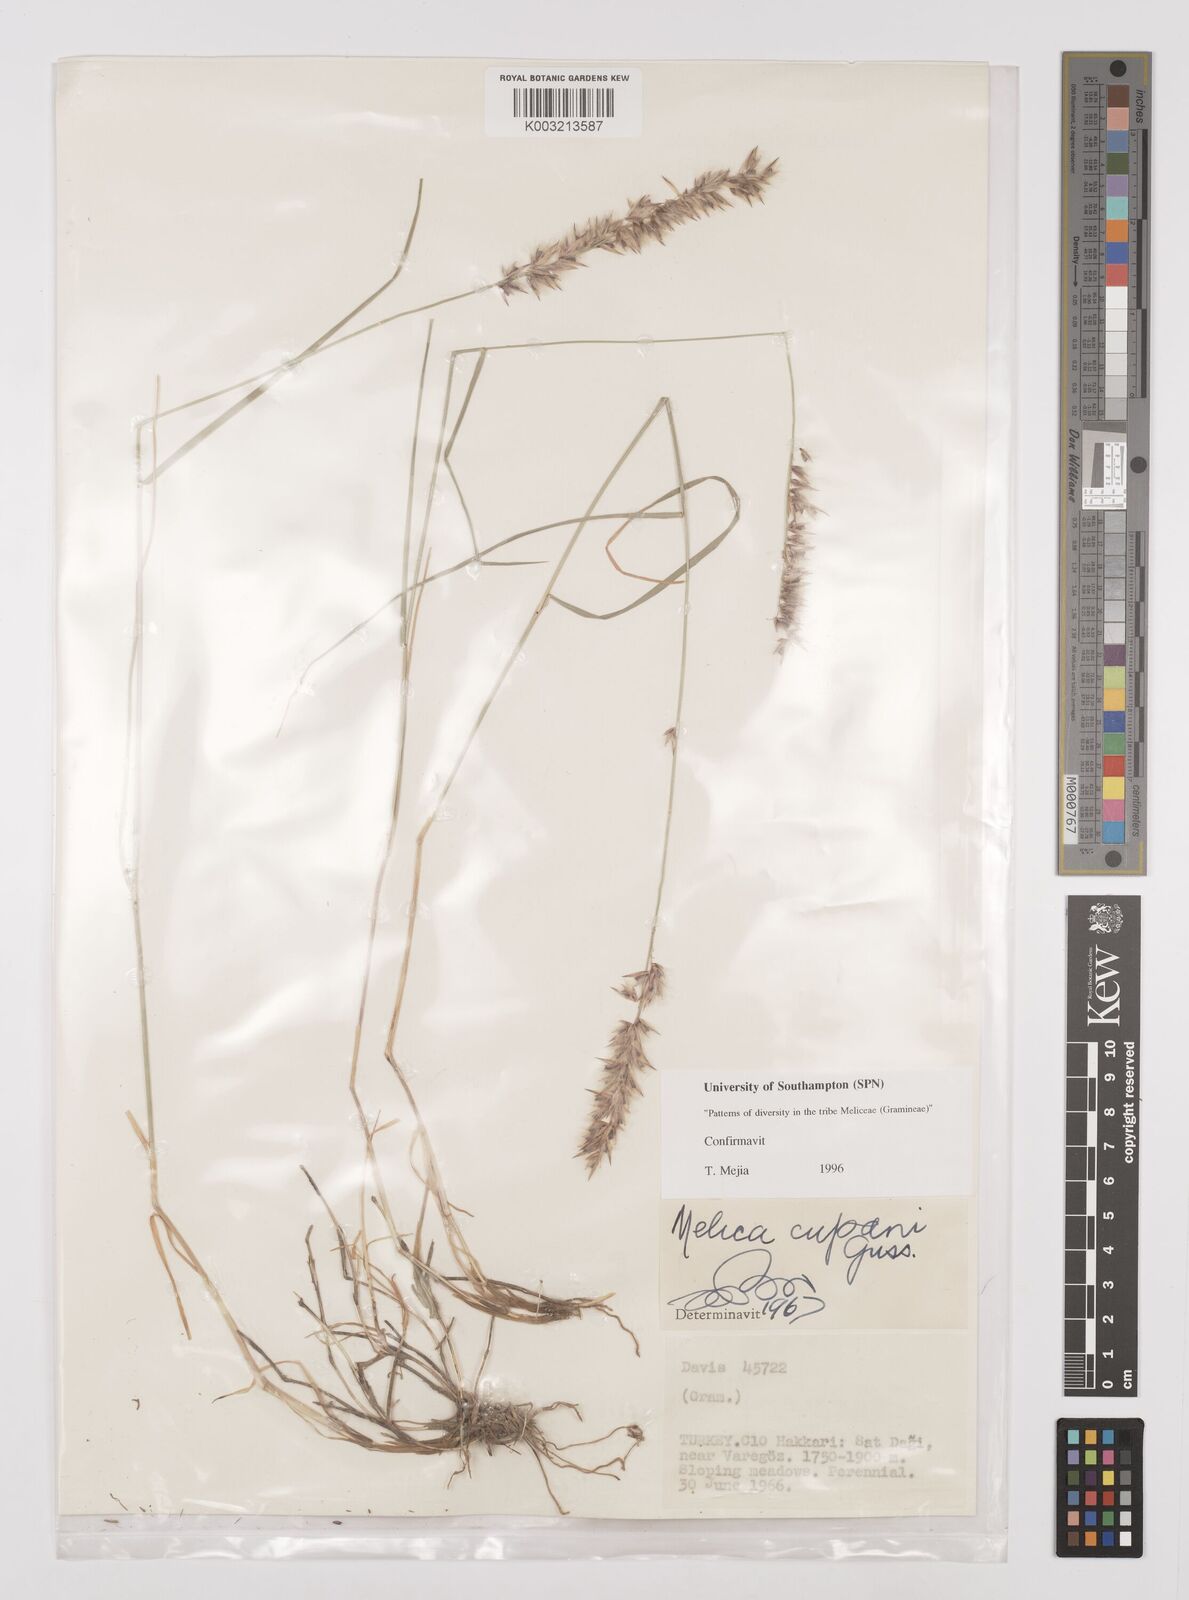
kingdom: Plantae
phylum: Tracheophyta
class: Liliopsida
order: Poales
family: Poaceae
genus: Melica
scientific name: Melica cupani
